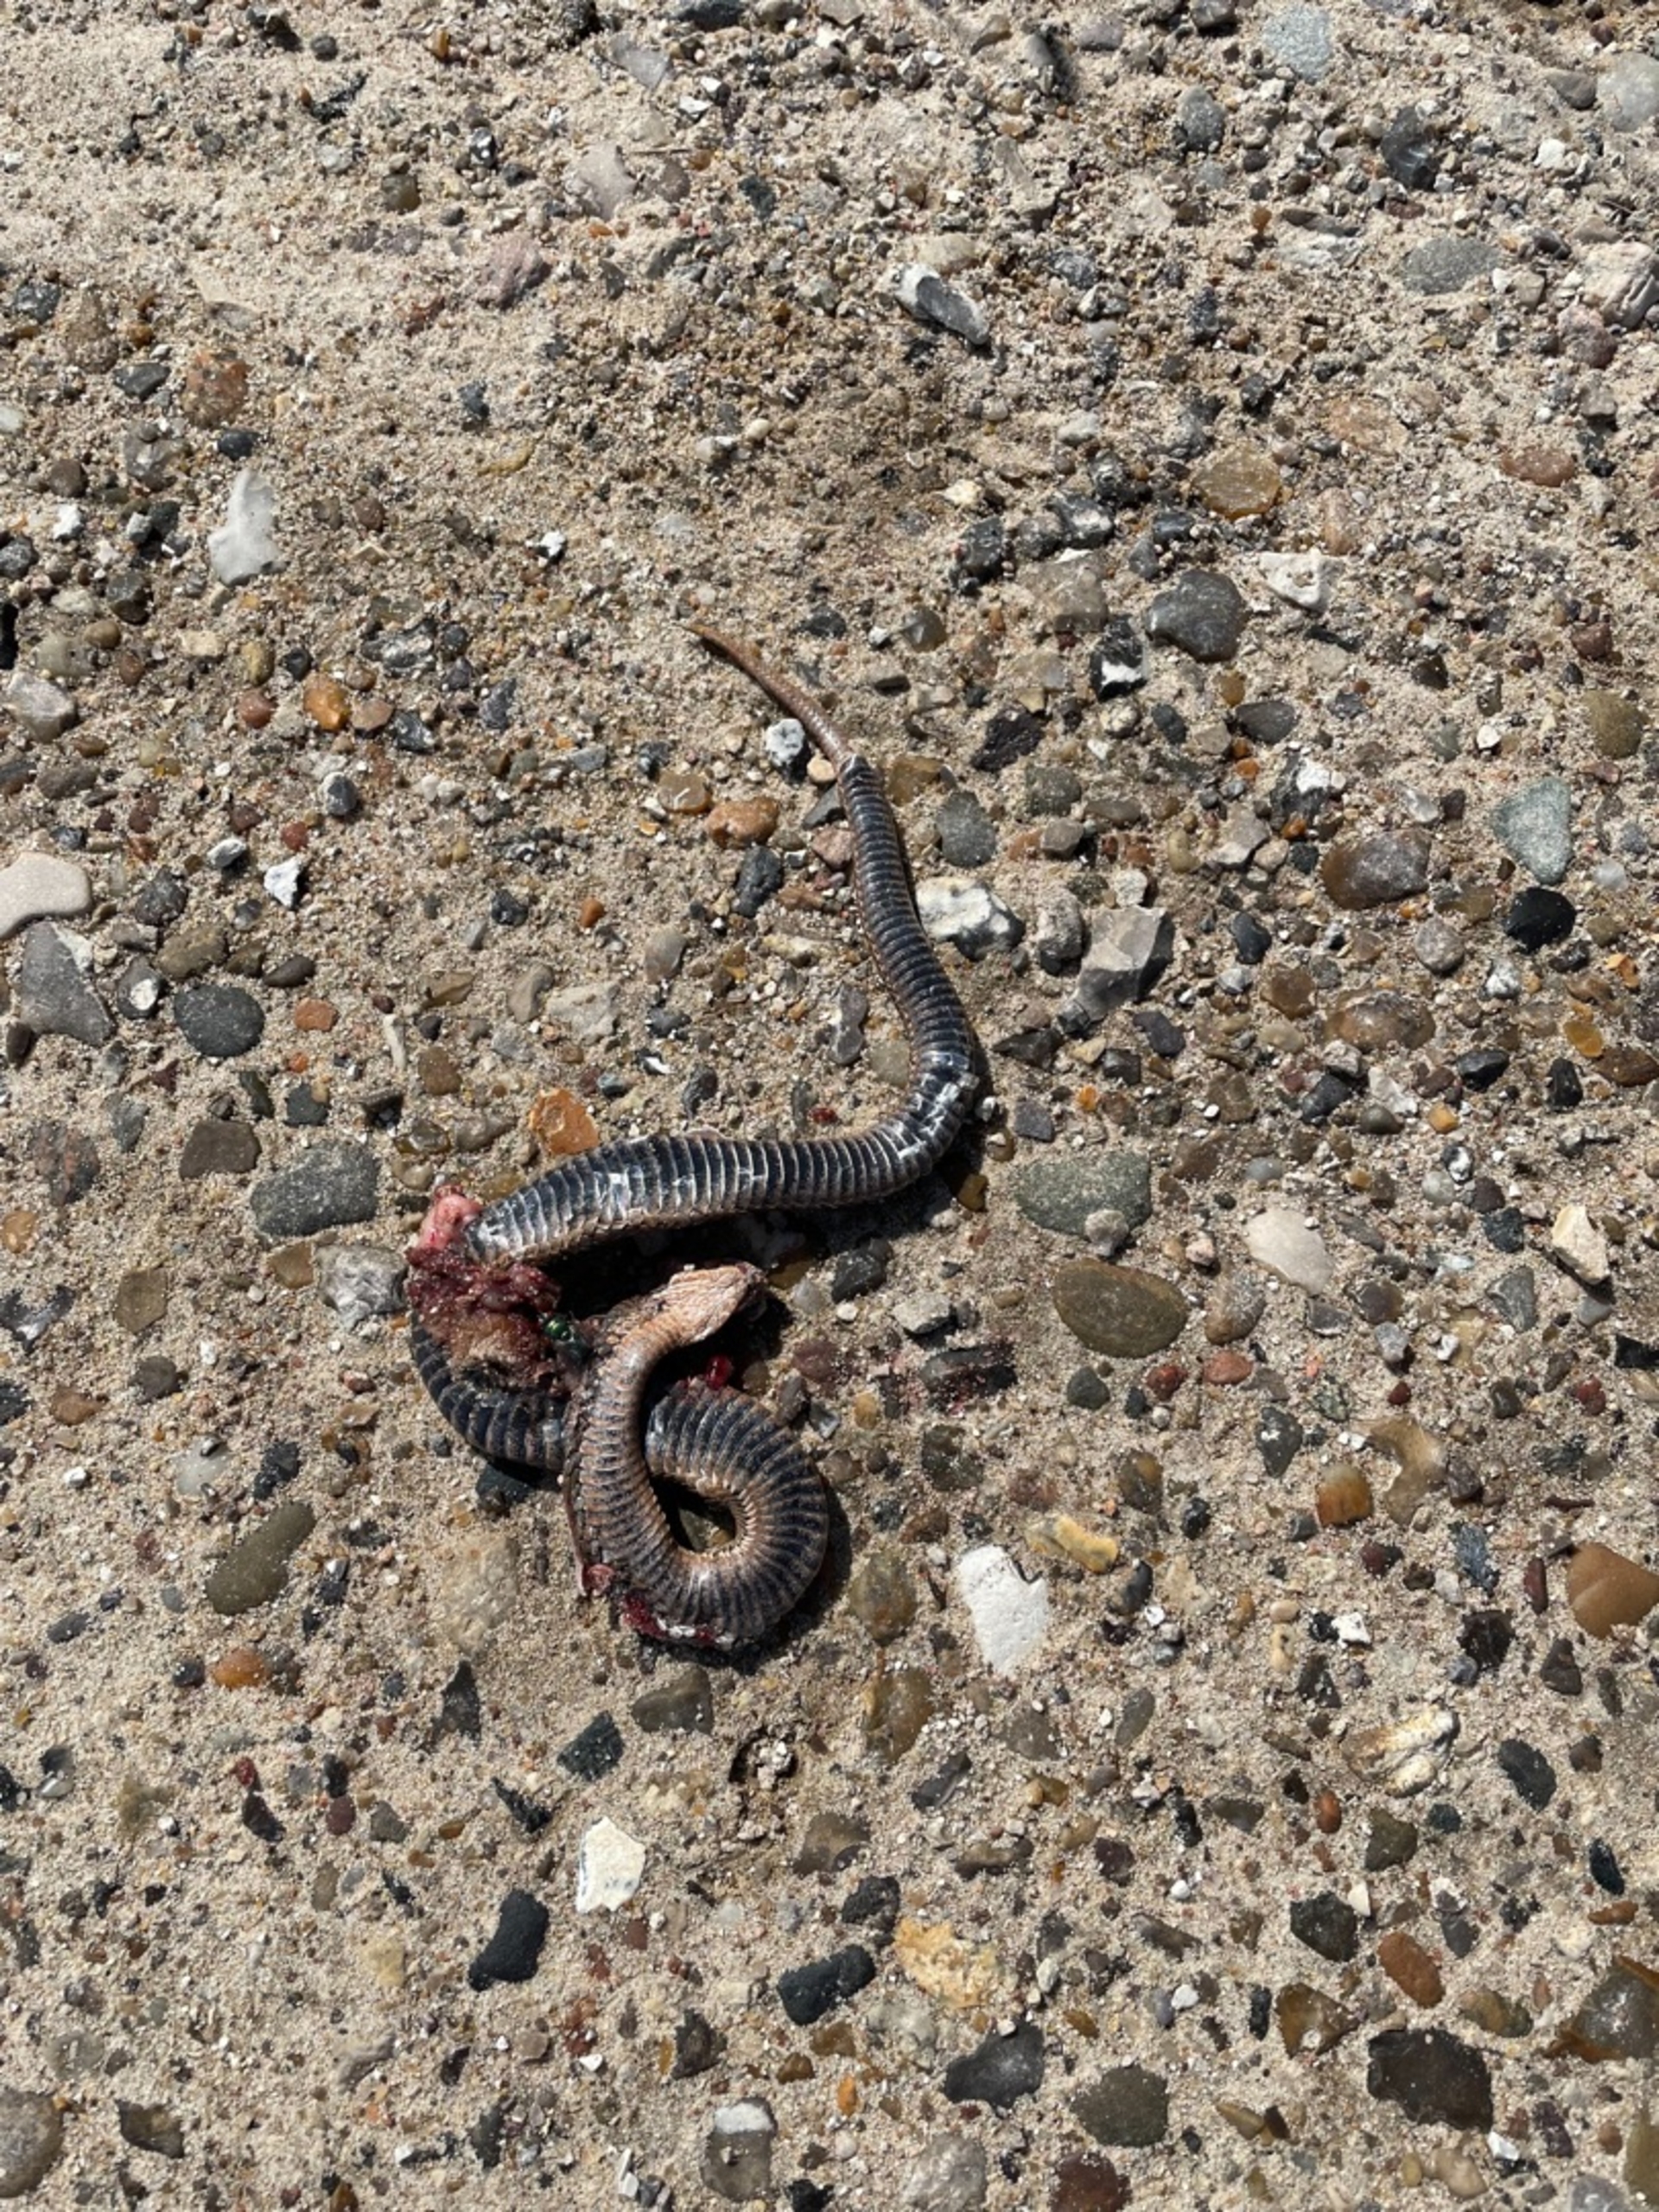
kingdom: Animalia
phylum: Chordata
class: Squamata
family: Viperidae
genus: Vipera
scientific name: Vipera berus
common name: Hugorm
